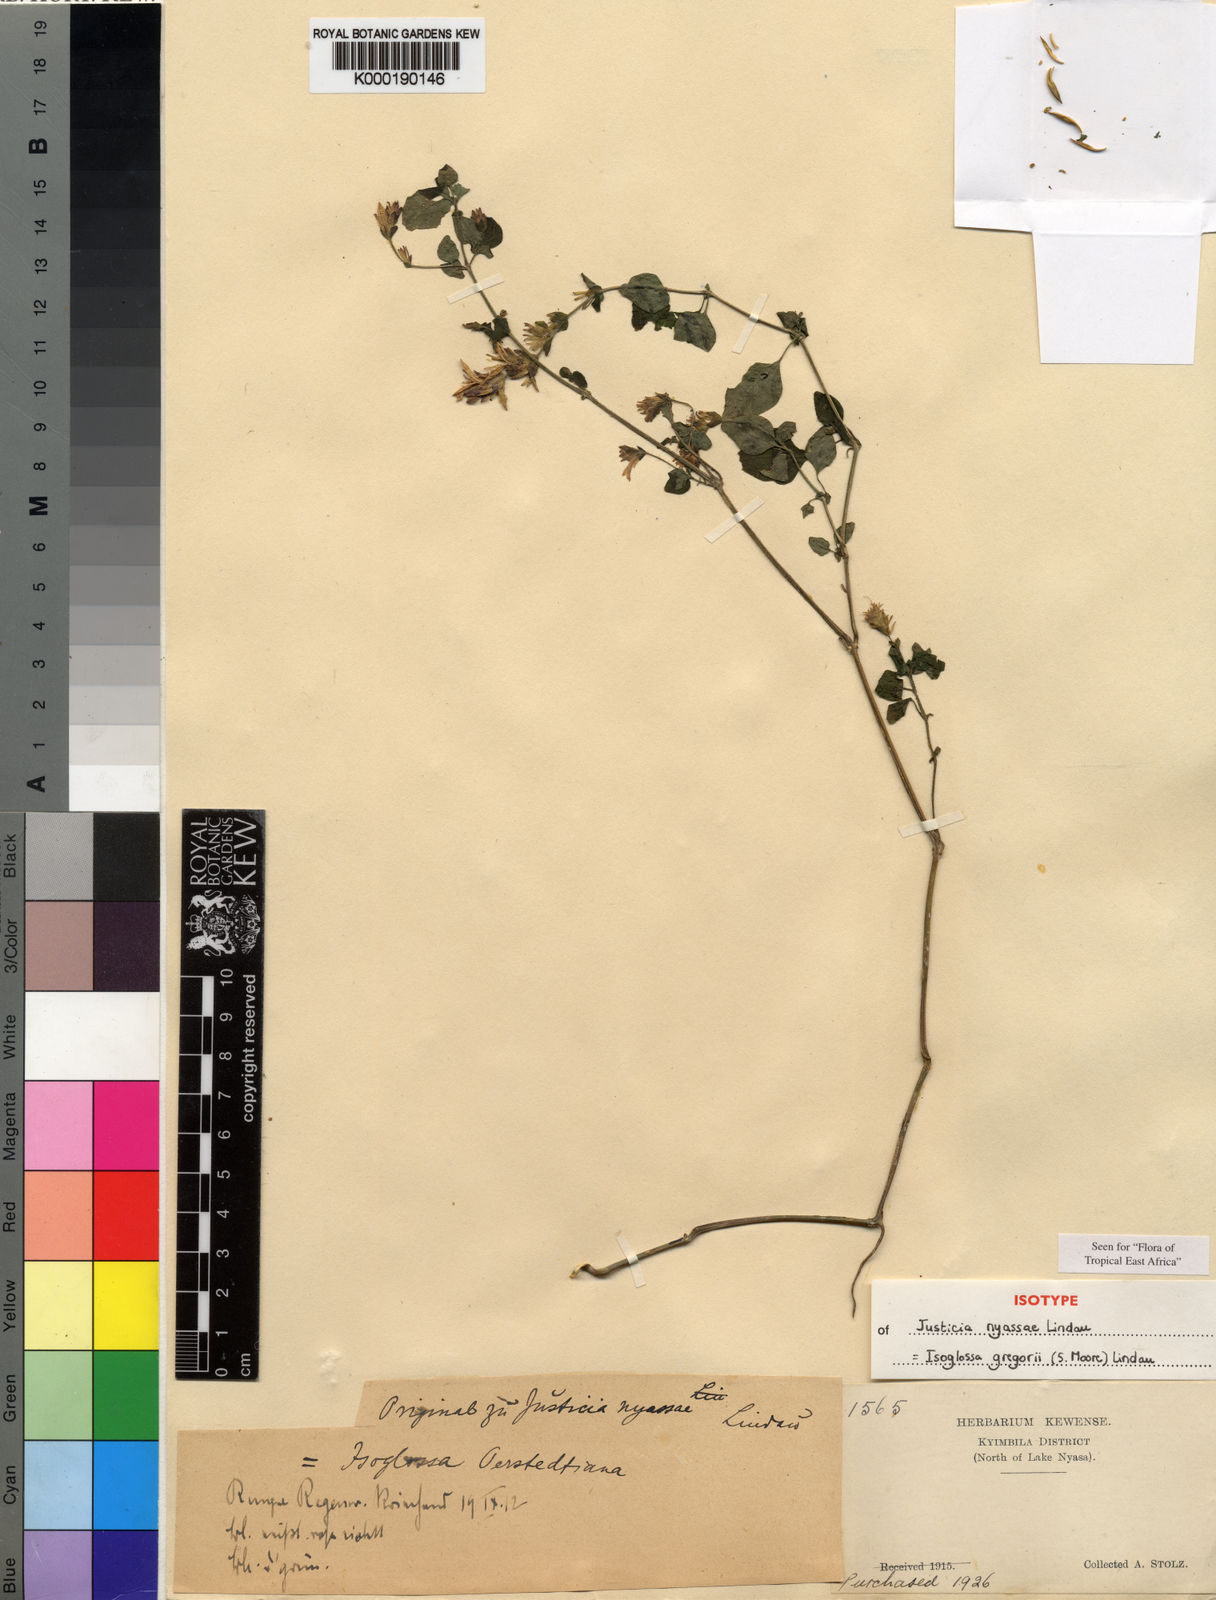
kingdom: Plantae
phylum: Tracheophyta
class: Magnoliopsida
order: Lamiales
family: Acanthaceae
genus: Isoglossa
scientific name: Isoglossa gregorii
